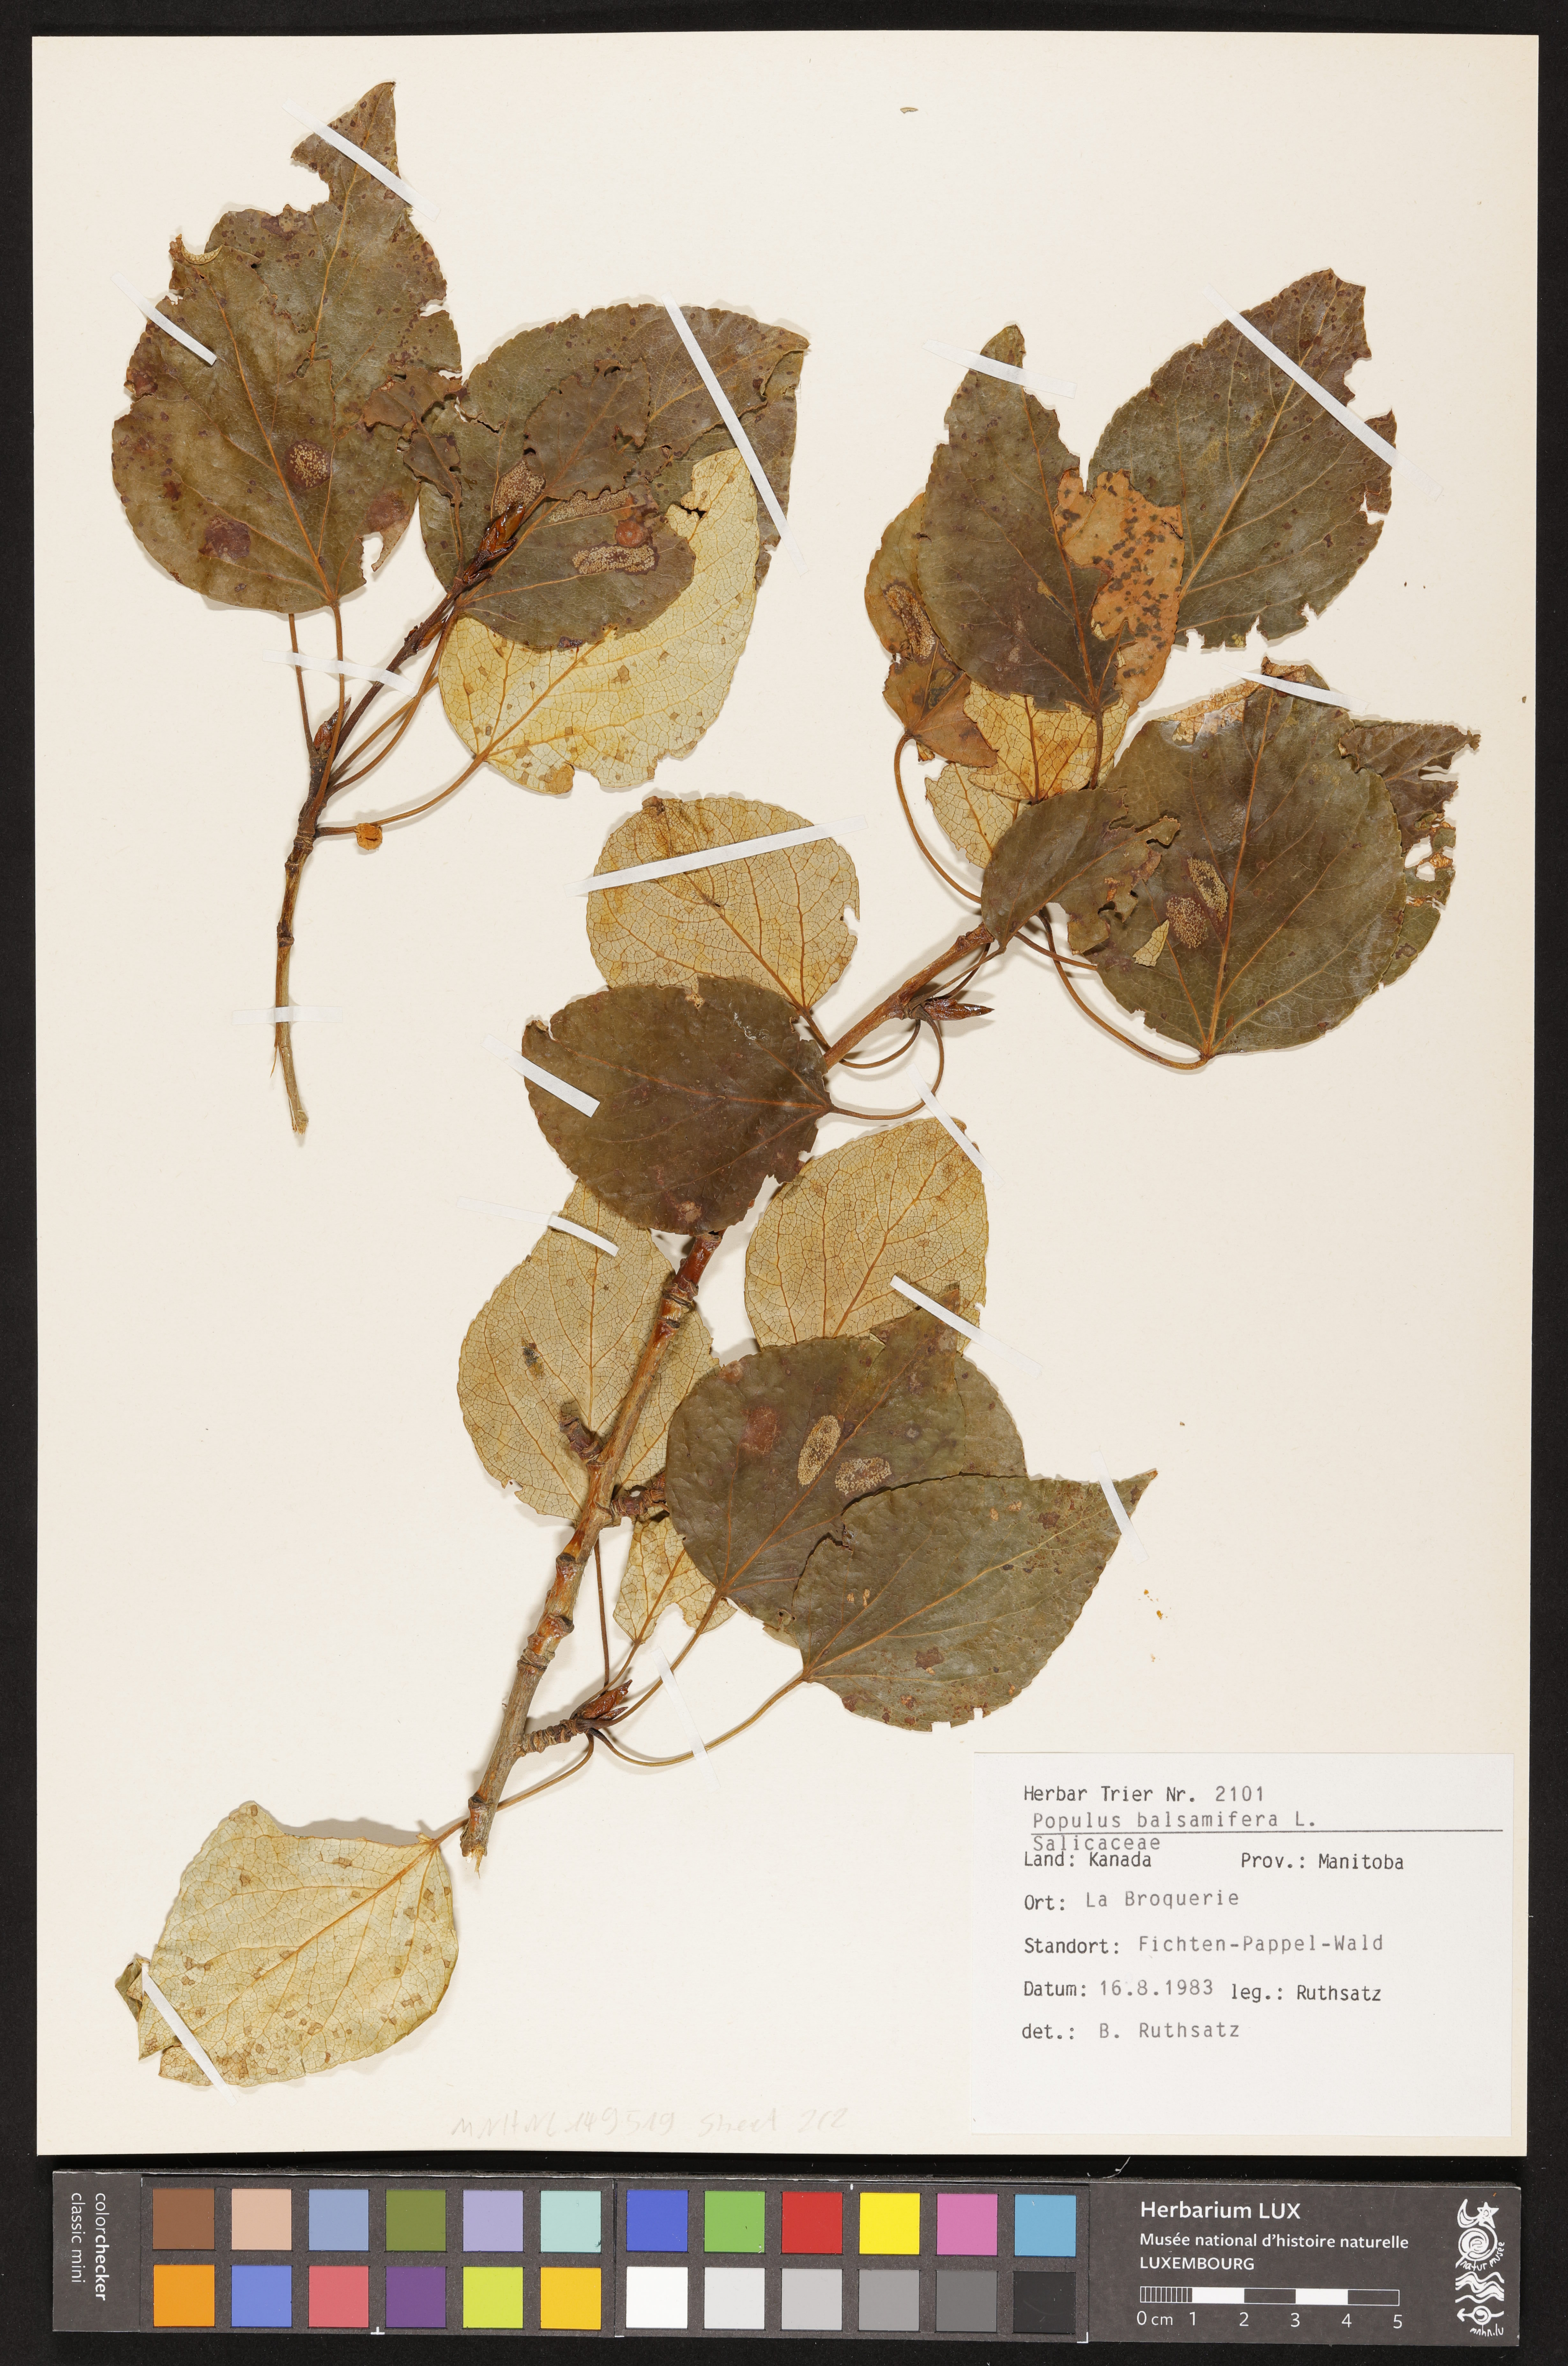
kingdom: Plantae
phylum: Tracheophyta
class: Magnoliopsida
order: Malpighiales
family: Salicaceae
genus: Populus
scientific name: Populus balsamifera
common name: Balsam poplar
